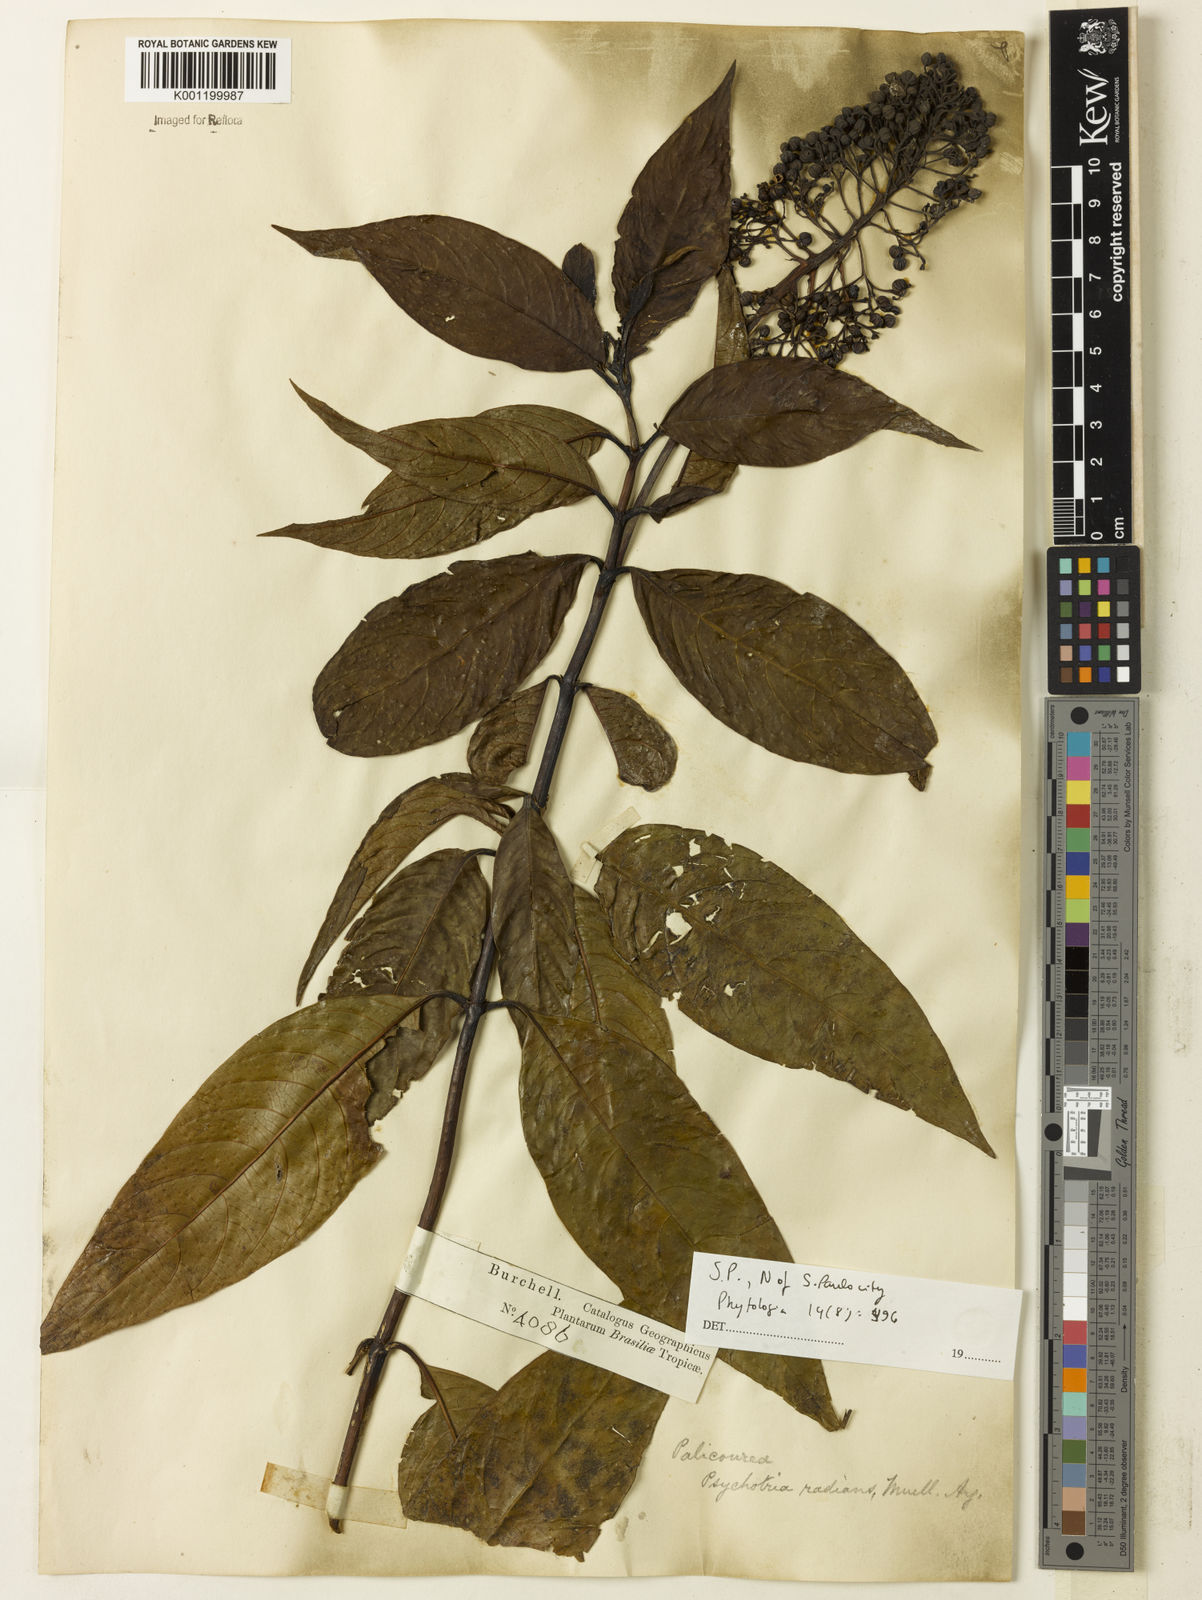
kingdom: Plantae
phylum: Tracheophyta
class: Magnoliopsida
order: Gentianales
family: Rubiaceae
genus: Palicourea
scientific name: Palicourea
